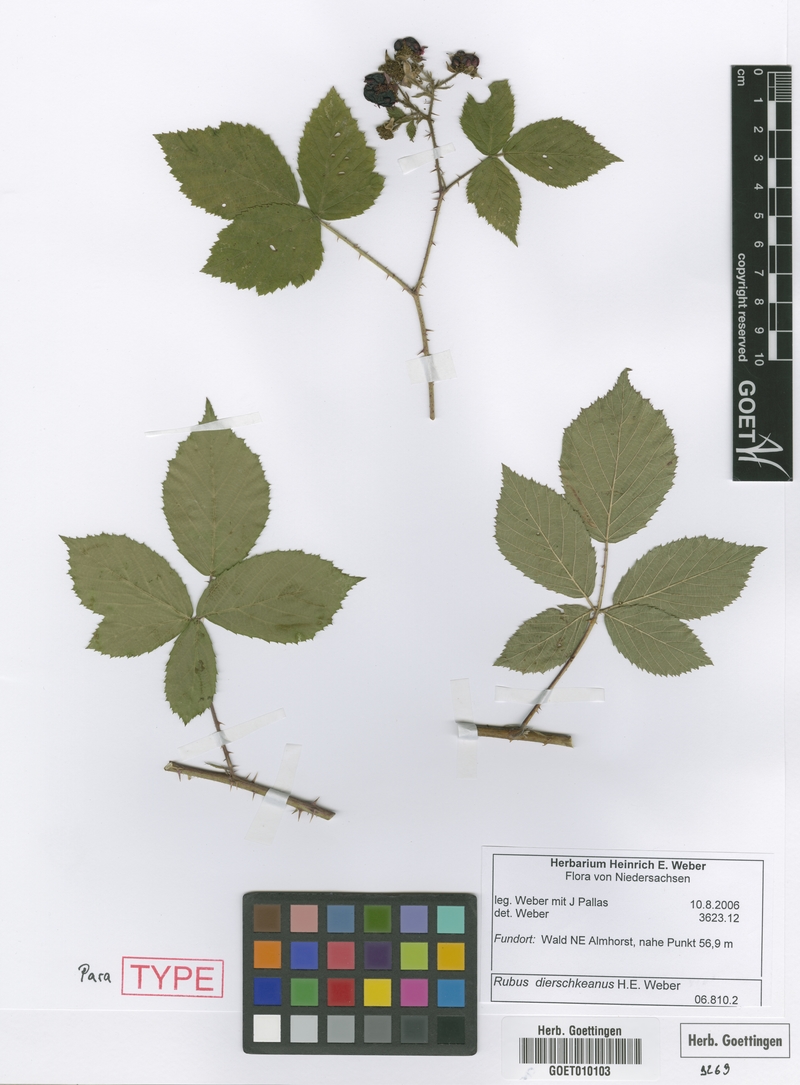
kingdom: Plantae
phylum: Tracheophyta
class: Magnoliopsida
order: Rosales
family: Rosaceae
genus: Rubus
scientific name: Rubus dierschkeanus
